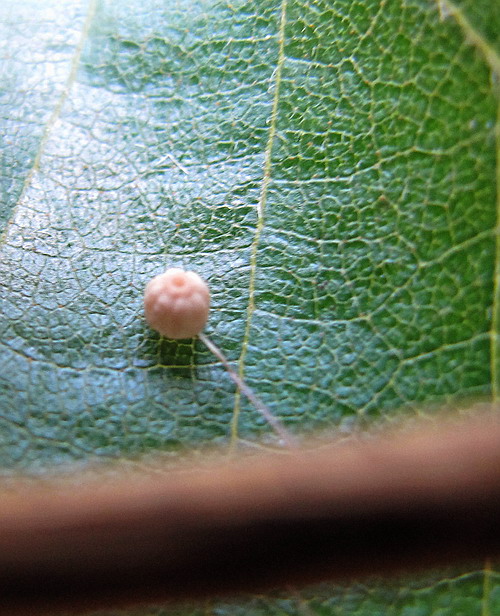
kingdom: Fungi
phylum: Basidiomycota
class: Agaricomycetes
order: Agaricales
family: Marasmiaceae
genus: Marasmius
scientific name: Marasmius limosus
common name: kær-bruskhat
